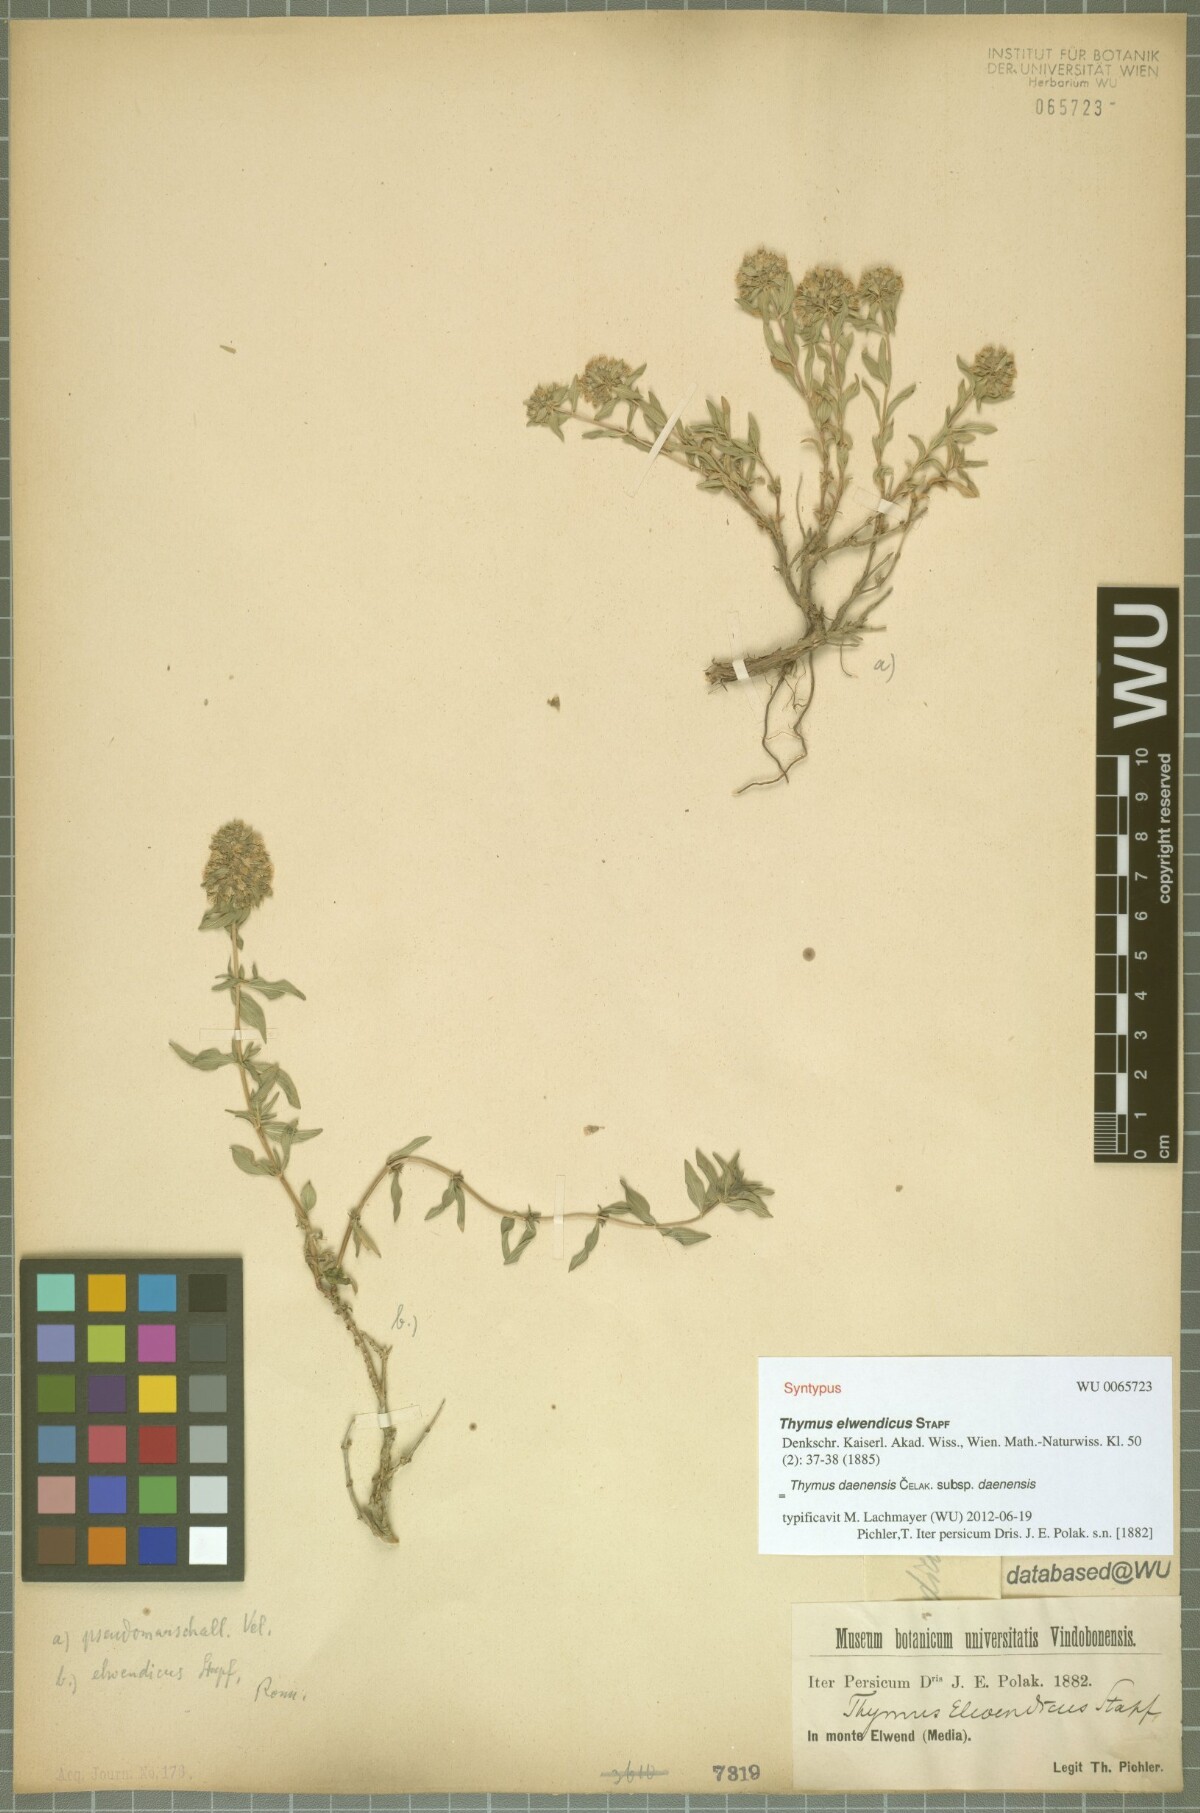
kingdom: Plantae
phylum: Tracheophyta
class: Magnoliopsida
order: Lamiales
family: Lamiaceae
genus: Thymus
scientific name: Thymus daenensis
